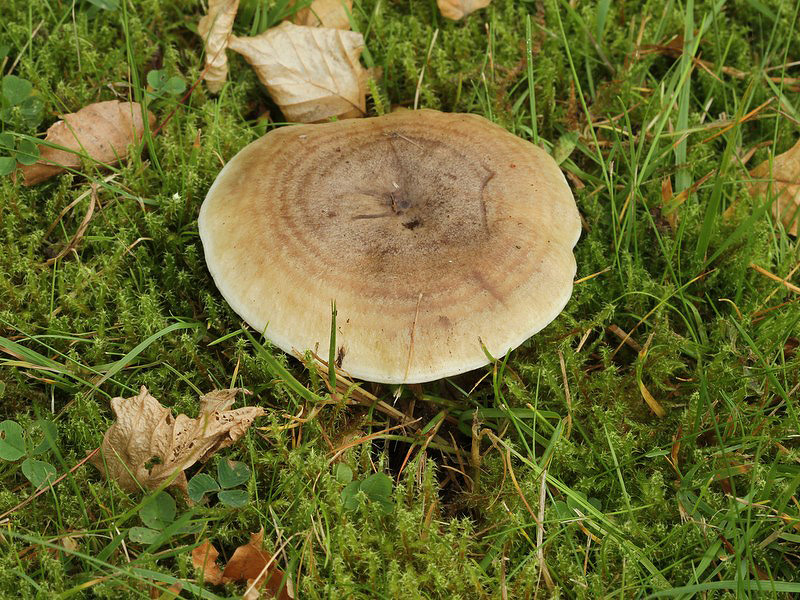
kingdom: Fungi
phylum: Basidiomycota
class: Agaricomycetes
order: Russulales
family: Russulaceae
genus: Lactarius
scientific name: Lactarius fluens
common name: lysrandet mælkehat
